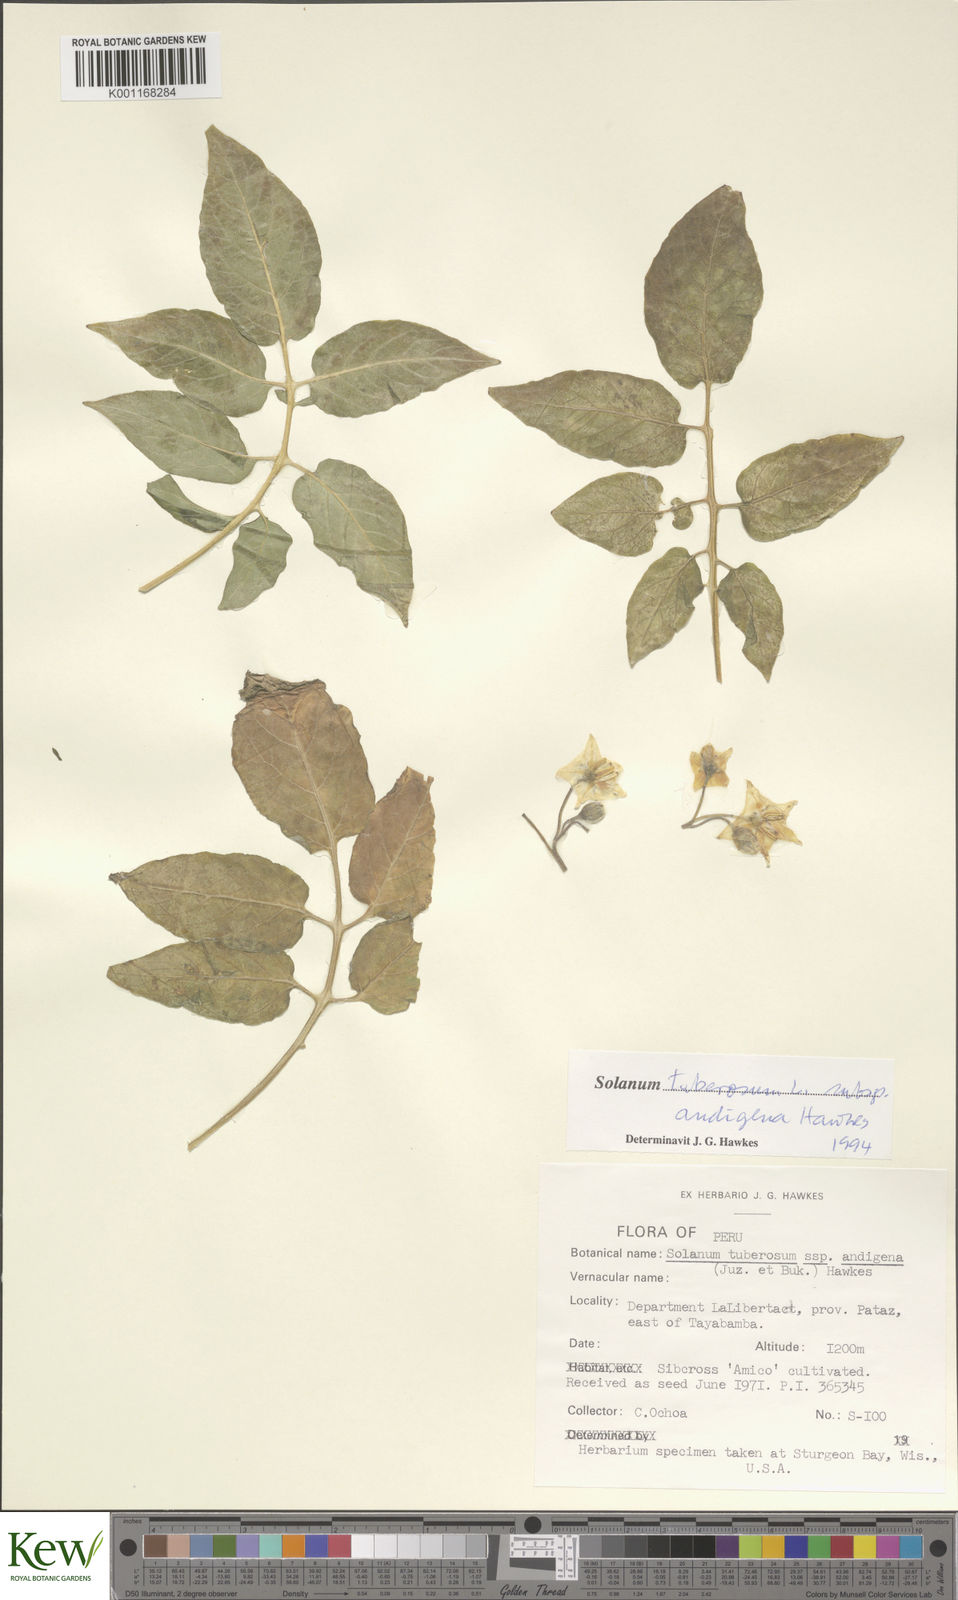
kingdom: Plantae
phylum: Tracheophyta
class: Magnoliopsida
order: Solanales
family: Solanaceae
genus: Solanum
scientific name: Solanum tuberosum
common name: Potato
